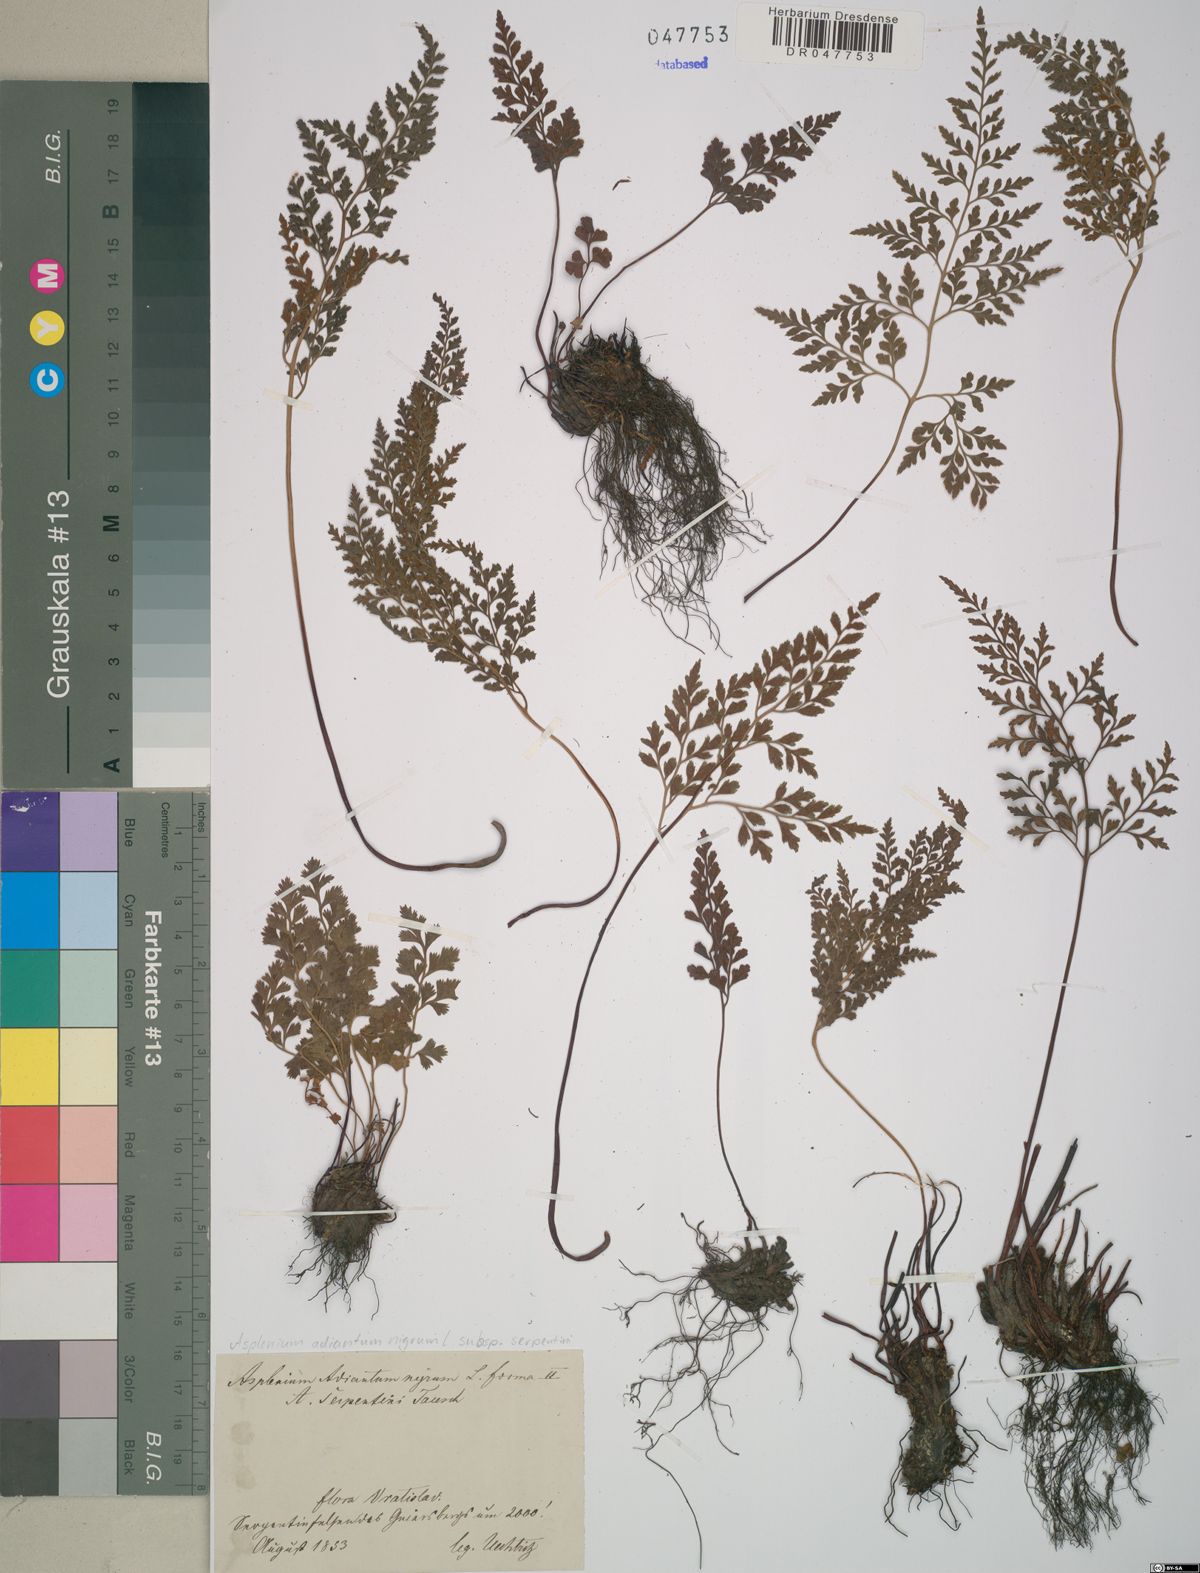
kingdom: Plantae
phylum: Tracheophyta
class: Polypodiopsida
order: Polypodiales
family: Aspleniaceae
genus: Asplenium
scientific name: Asplenium cuneifolium
